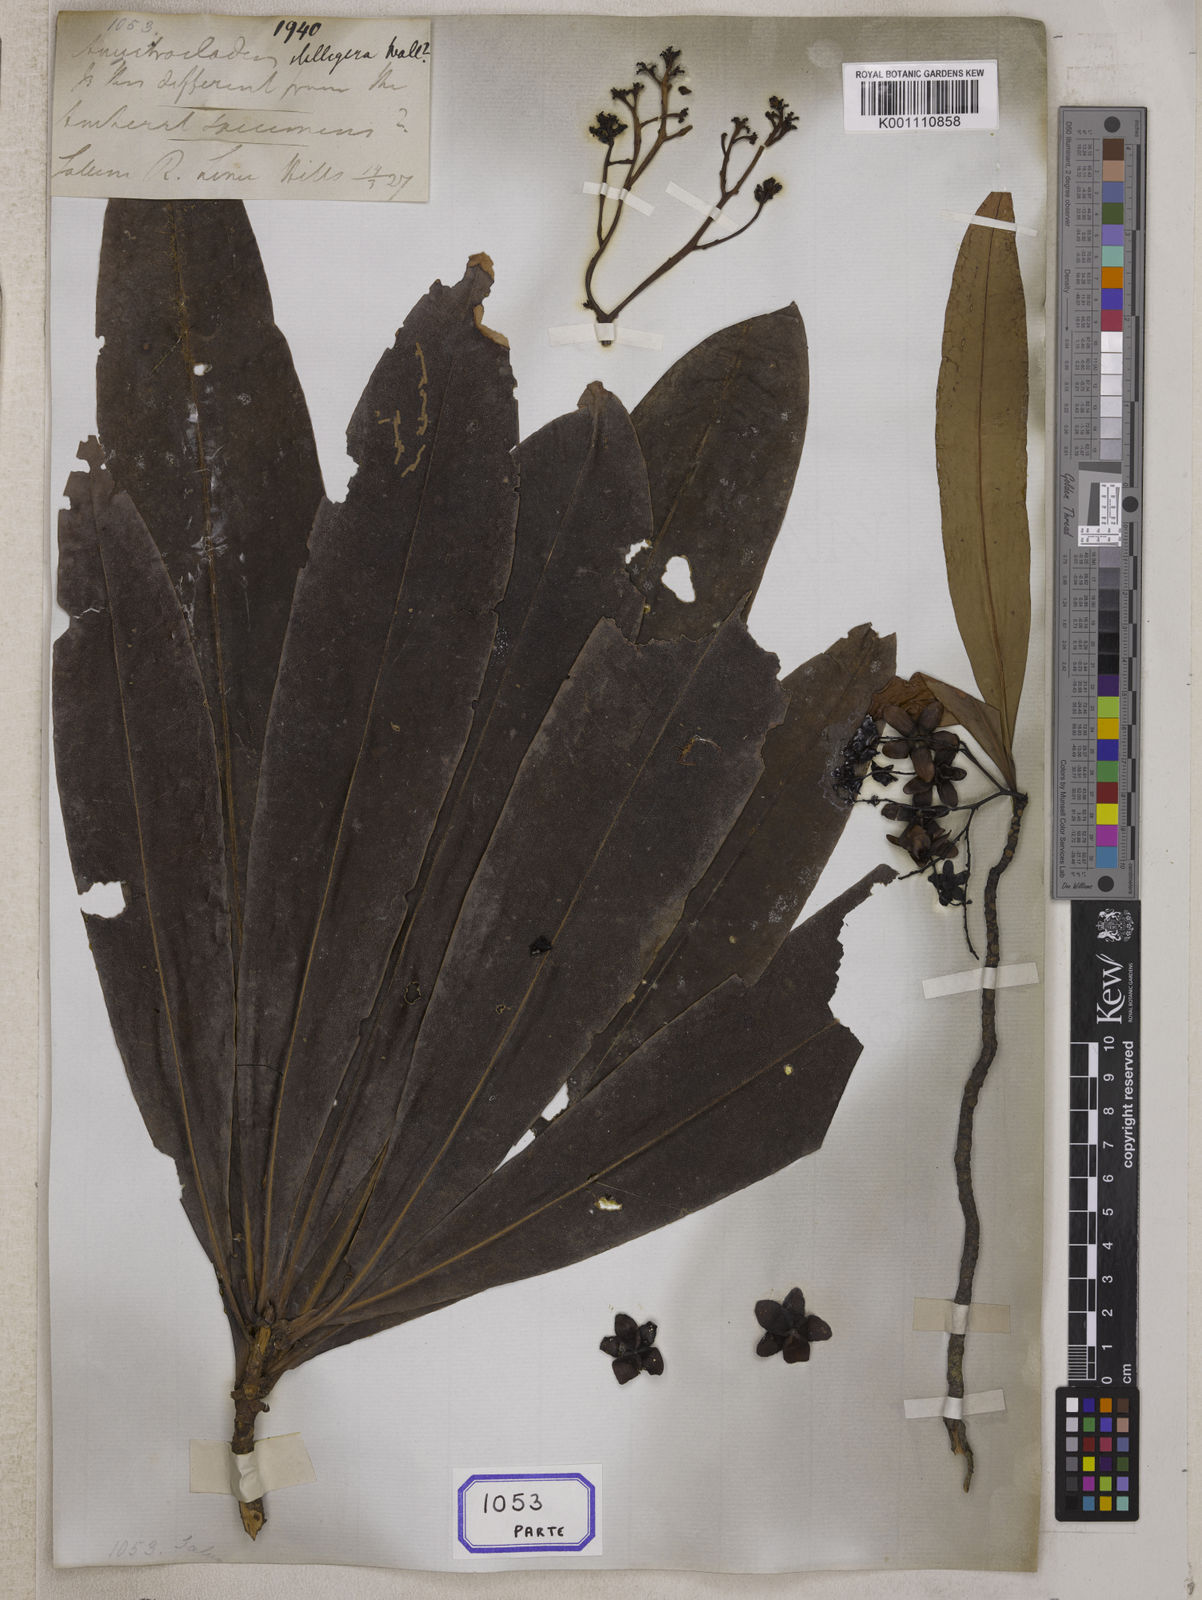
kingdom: Plantae
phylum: Tracheophyta
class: Magnoliopsida
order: Caryophyllales
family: Ancistrocladaceae
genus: Ancistrocladus
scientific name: Ancistrocladus
